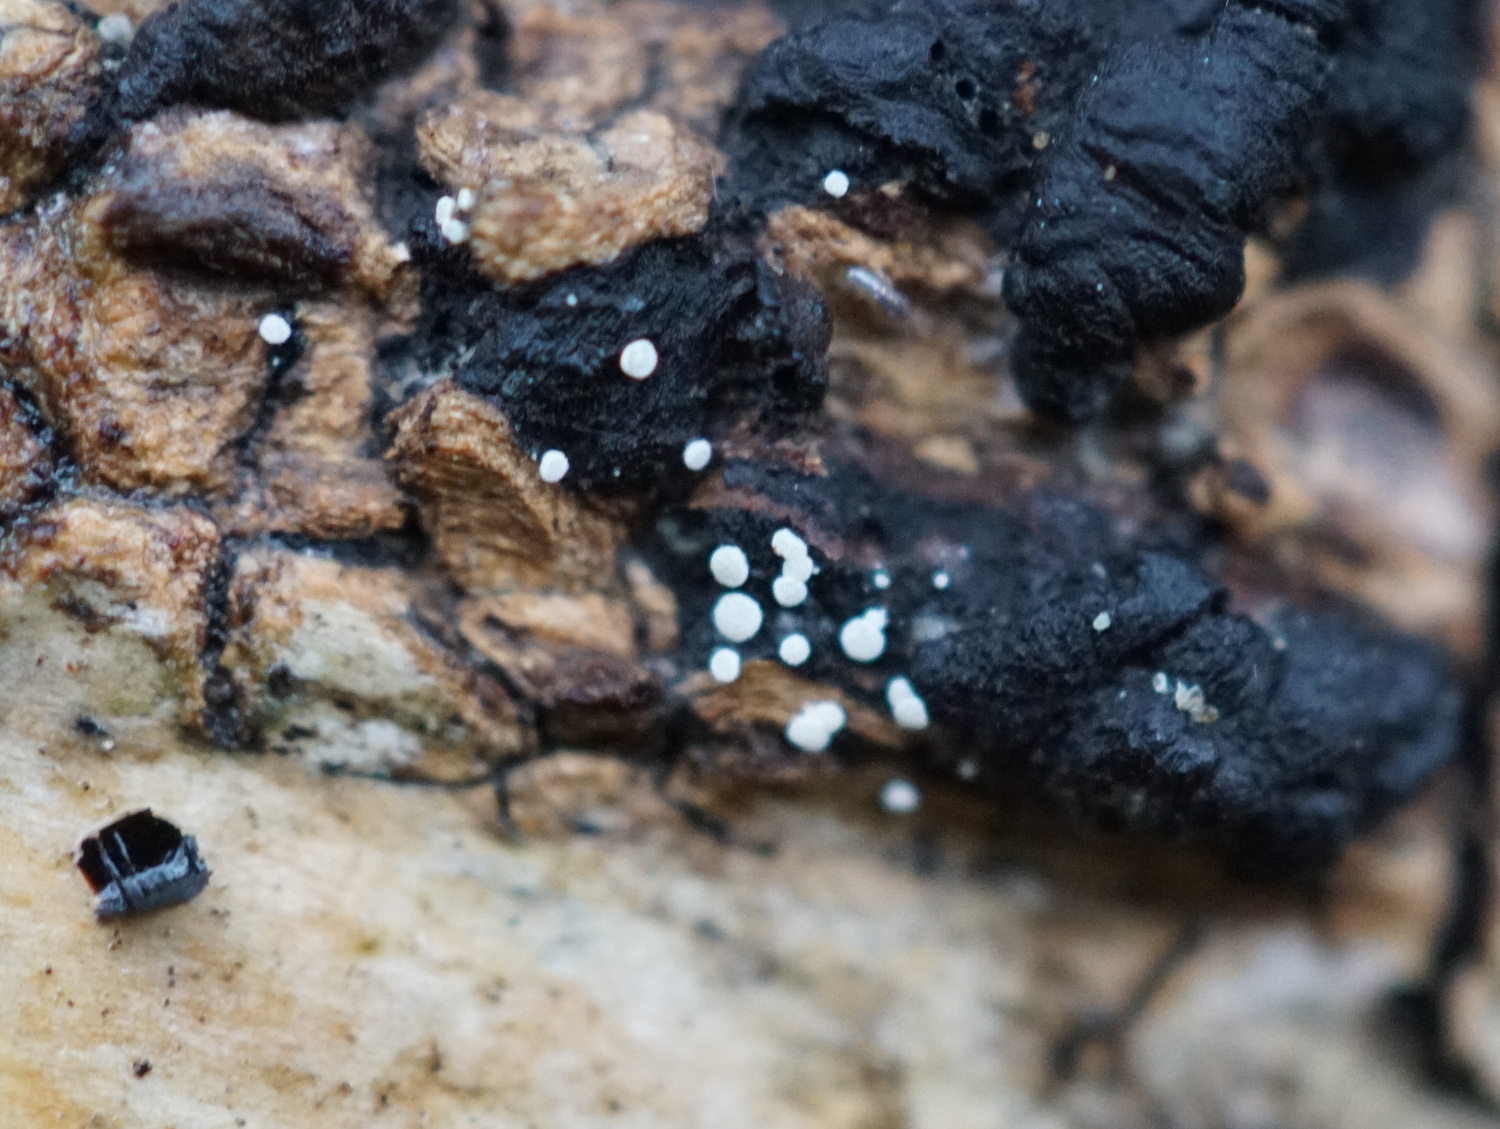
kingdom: Fungi
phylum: Ascomycota
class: Leotiomycetes
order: Helotiales
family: Hyaloscyphaceae
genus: Polydesmia
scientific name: Polydesmia pruinosa
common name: dunskive
